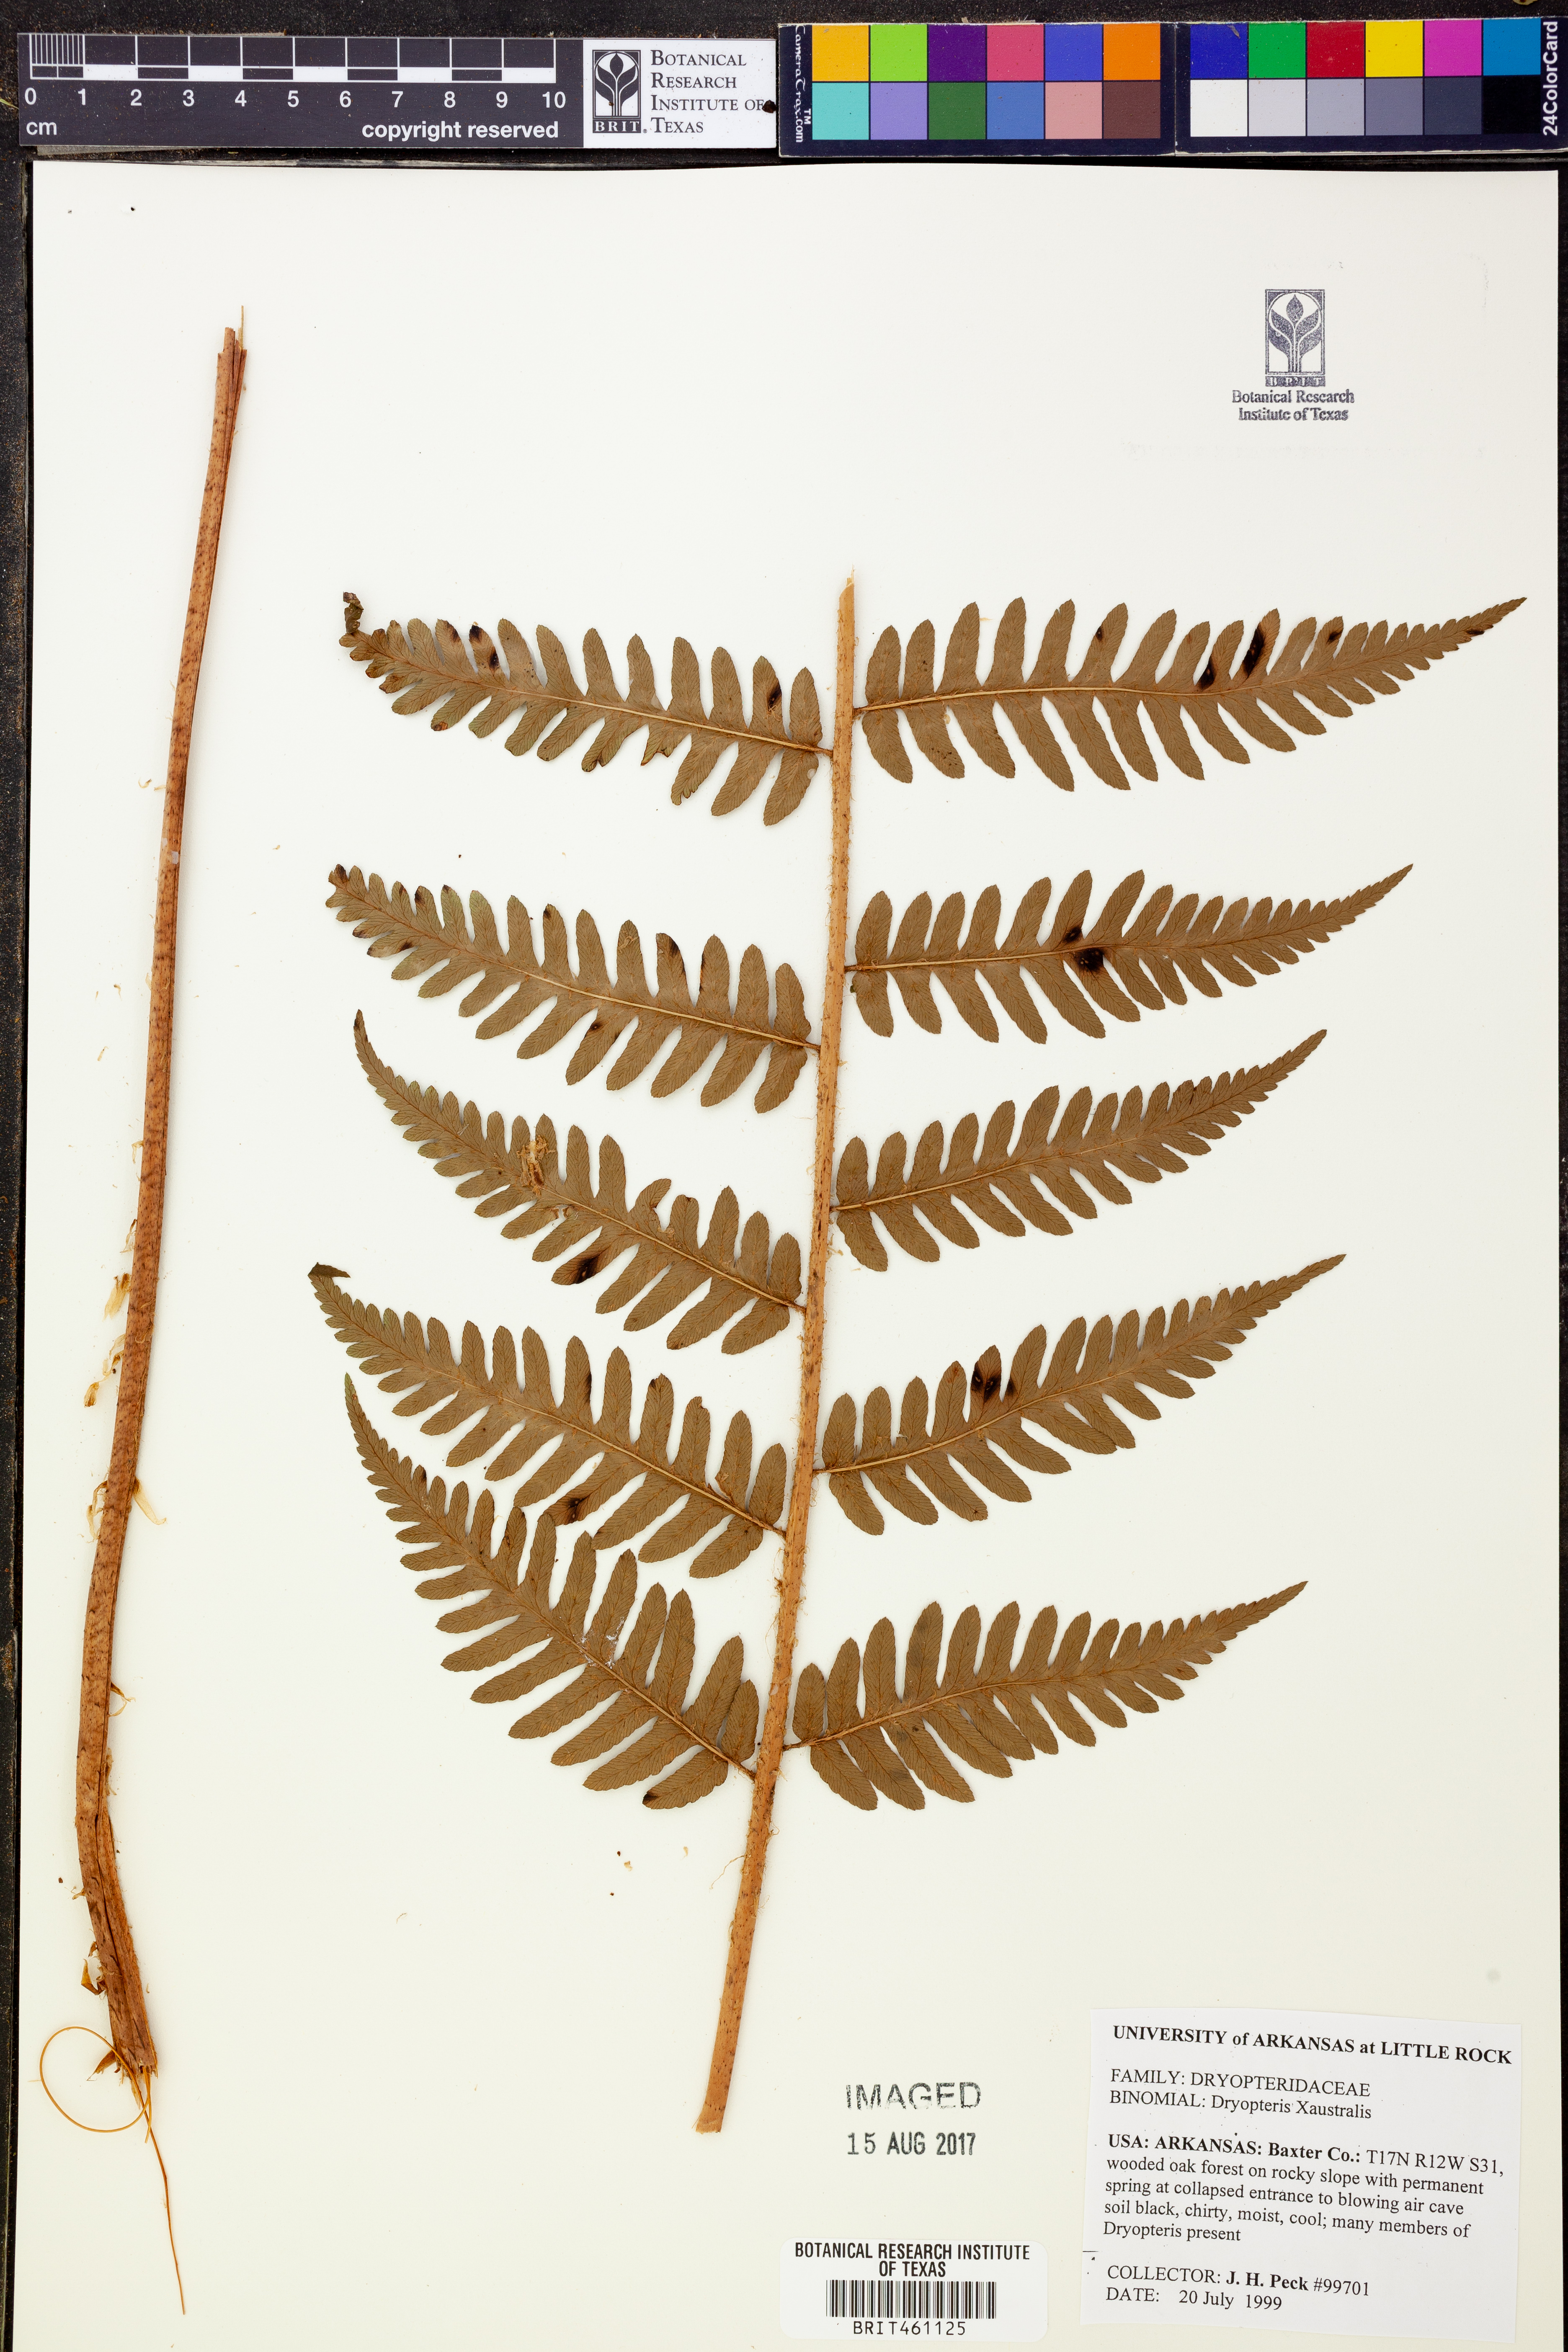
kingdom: Plantae
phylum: Tracheophyta
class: Polypodiopsida
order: Polypodiales
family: Dryopteridaceae
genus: Dryopteris
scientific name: Dryopteris
